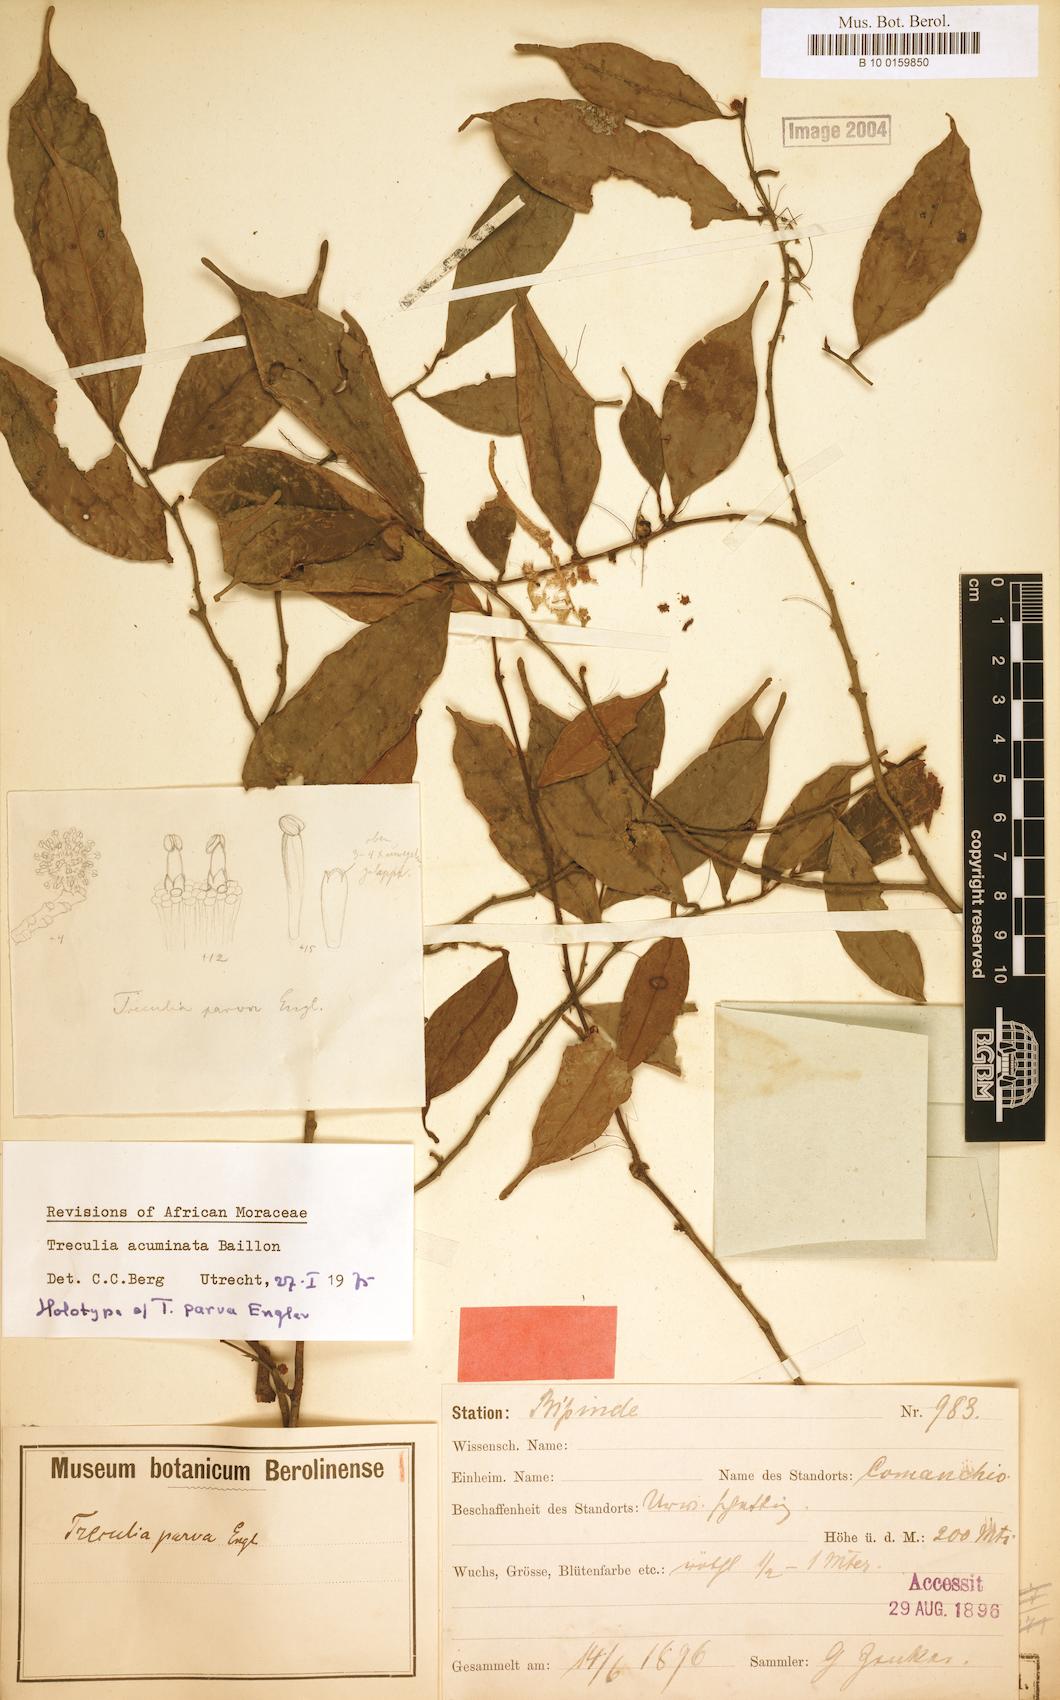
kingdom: Plantae
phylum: Tracheophyta
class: Magnoliopsida
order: Rosales
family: Moraceae
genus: Treculia
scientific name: Treculia acuminata
